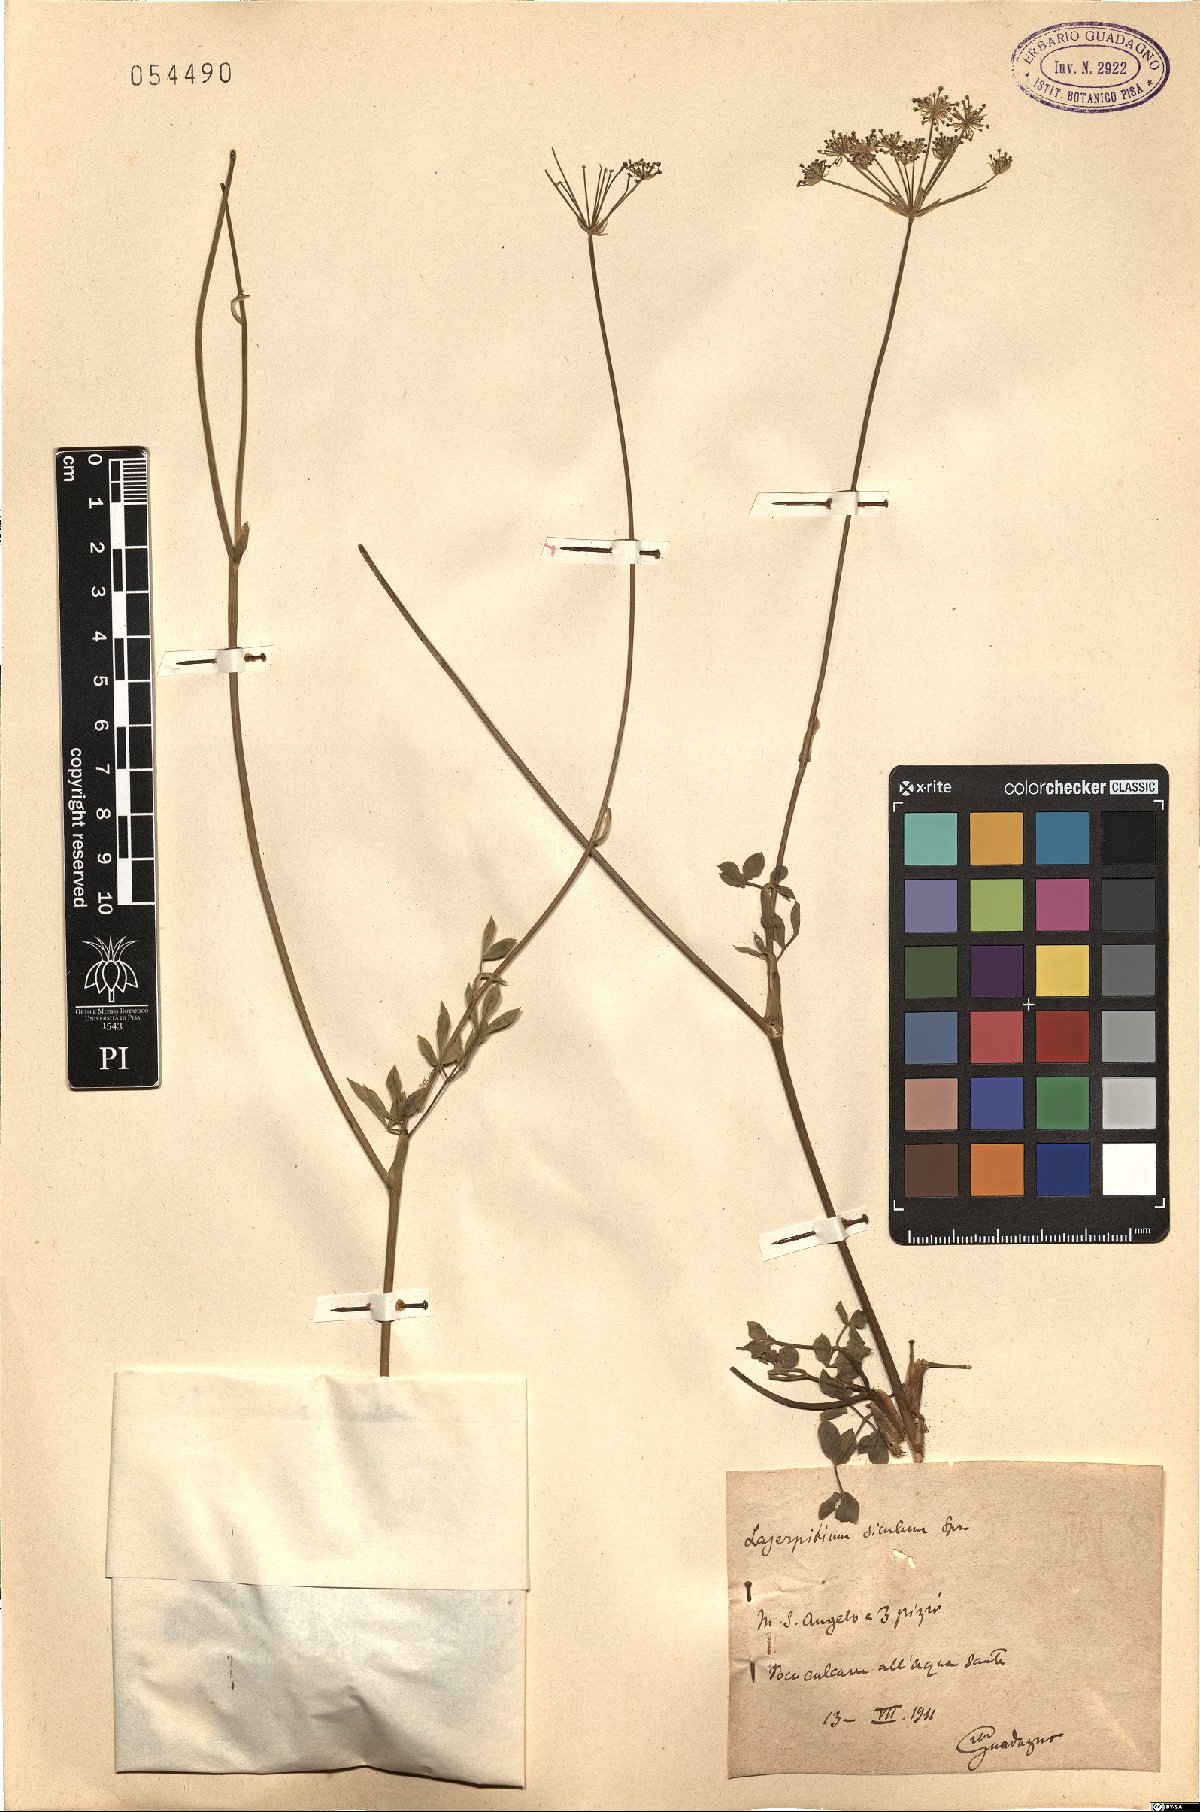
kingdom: Plantae
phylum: Tracheophyta
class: Magnoliopsida
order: Apiales
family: Apiaceae
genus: Siler
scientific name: Siler montanum
